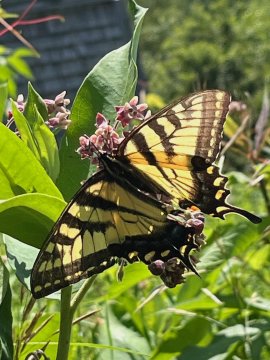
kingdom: Animalia
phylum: Arthropoda
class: Insecta
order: Lepidoptera
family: Papilionidae
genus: Pterourus
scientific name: Pterourus
